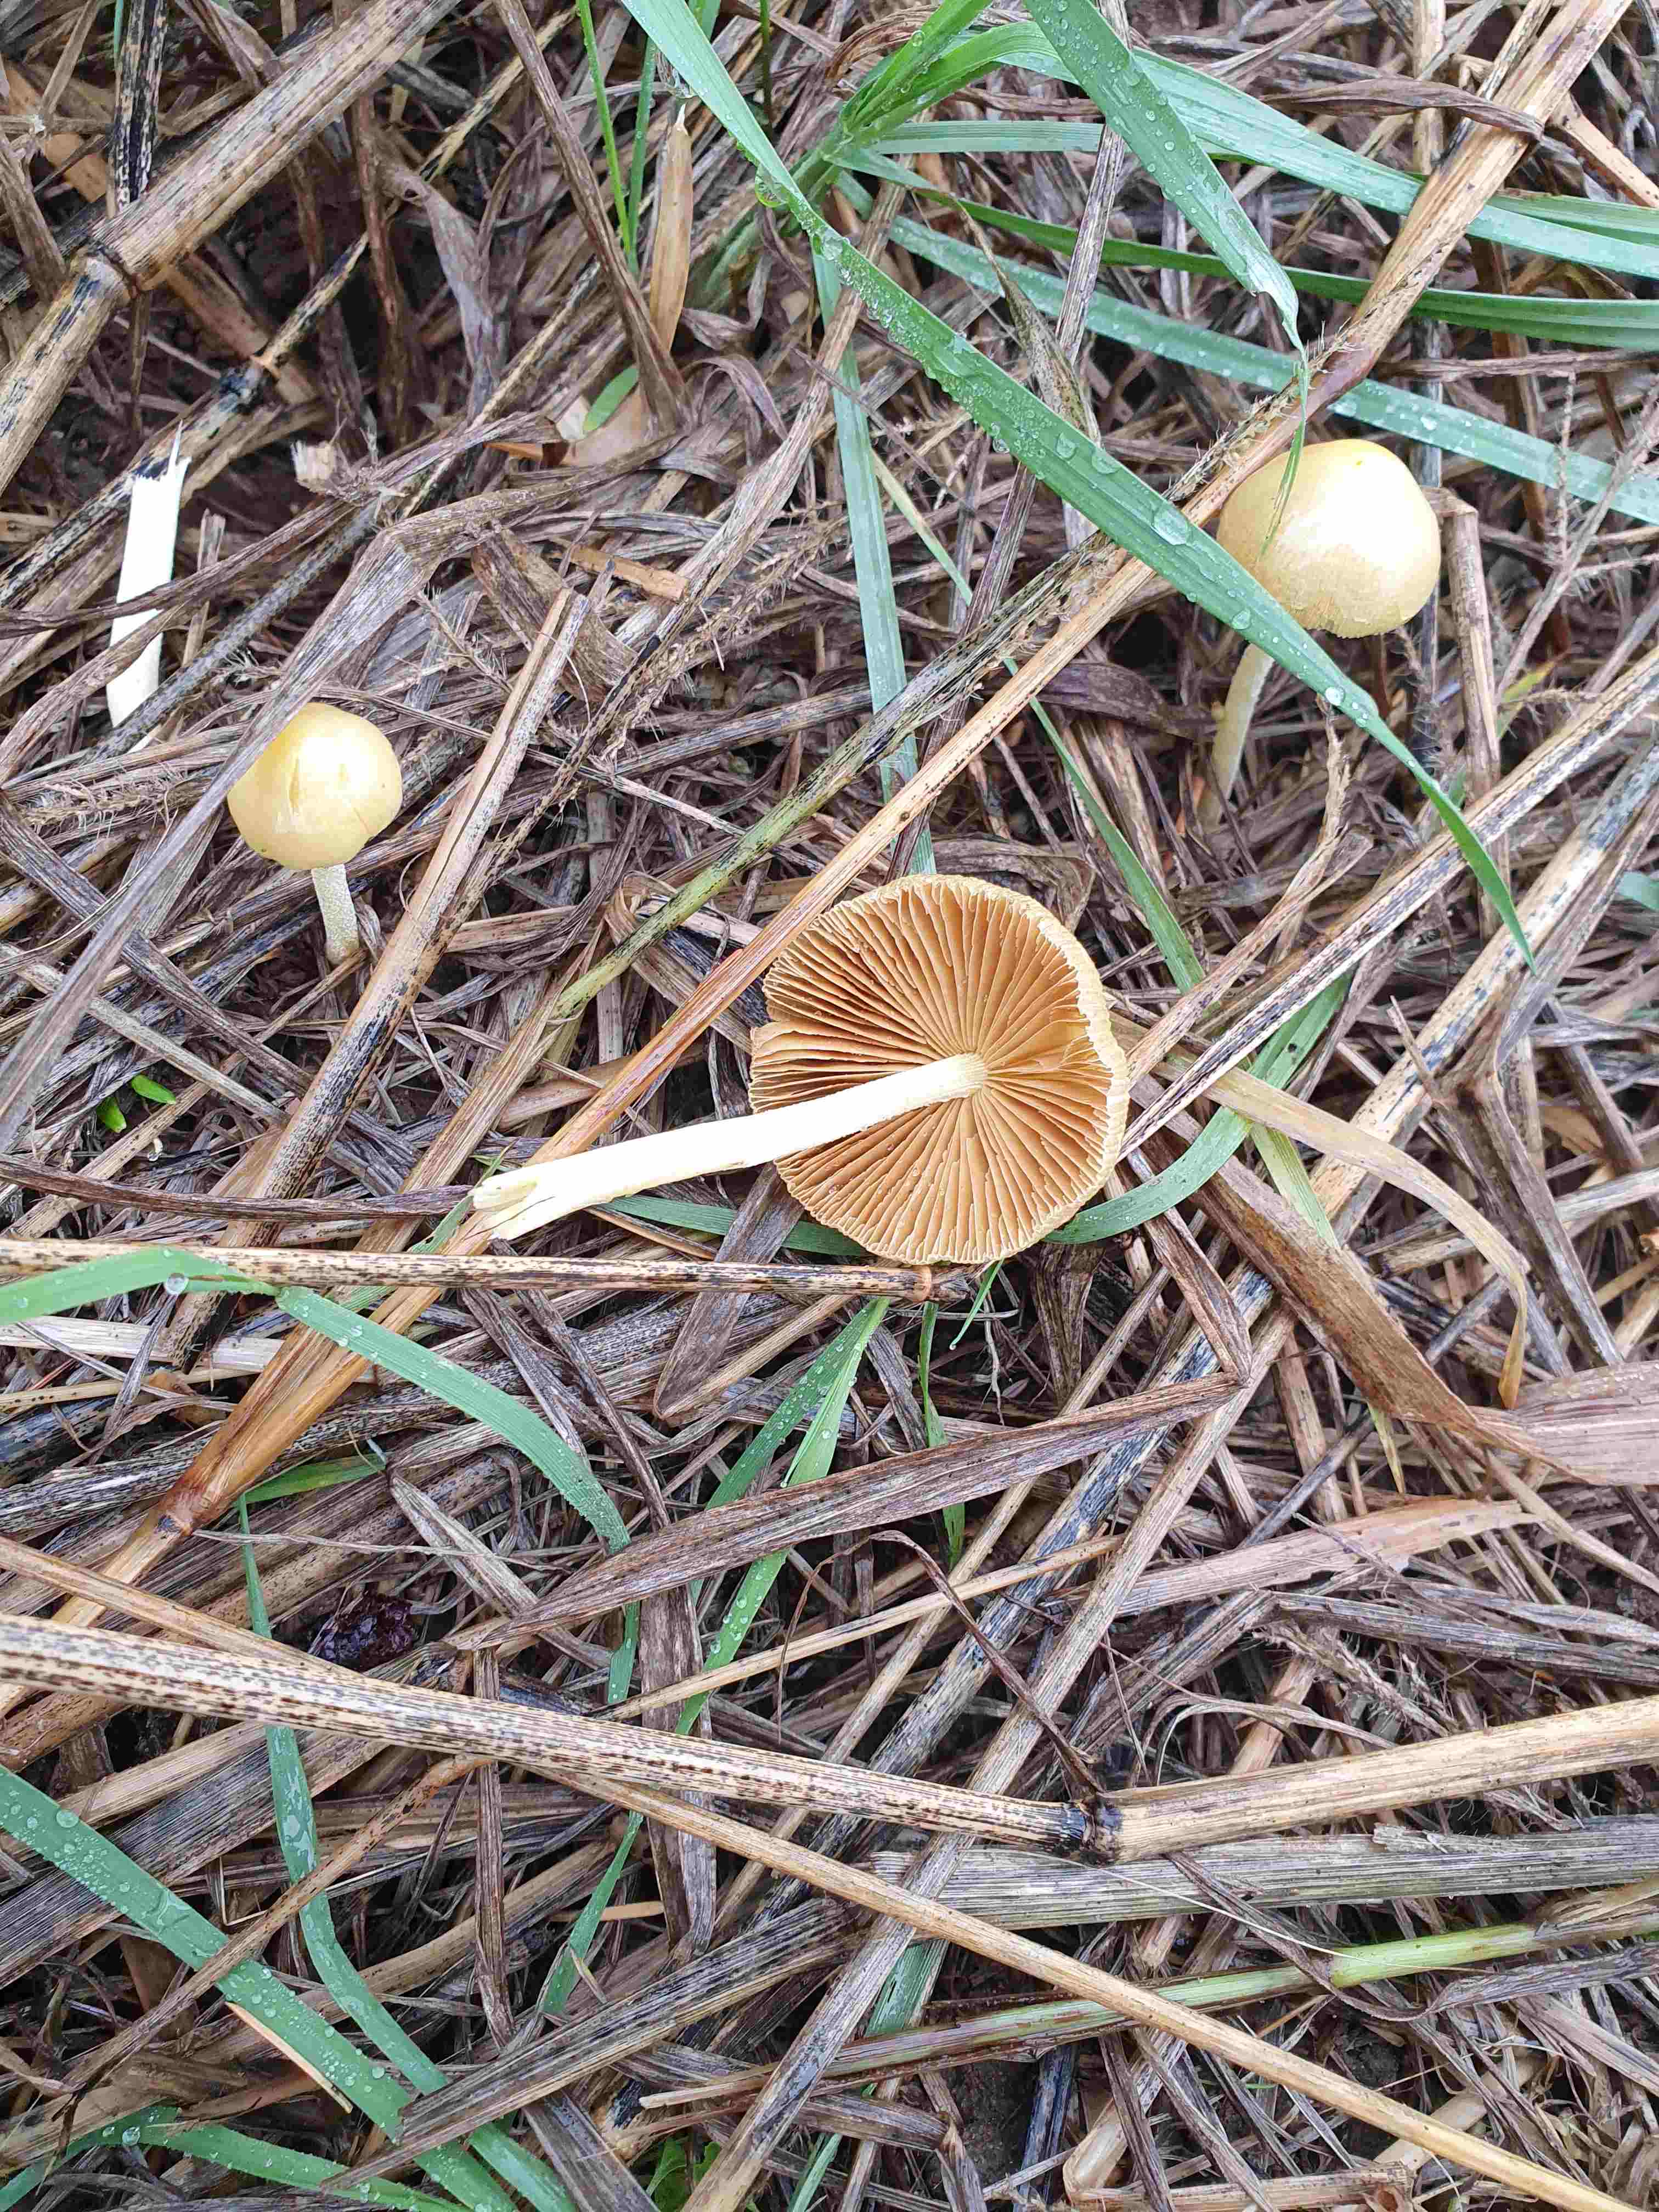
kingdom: Fungi
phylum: Basidiomycota
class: Agaricomycetes
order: Agaricales
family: Bolbitiaceae
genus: Bolbitius
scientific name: Bolbitius titubans
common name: almindelig gulhat
